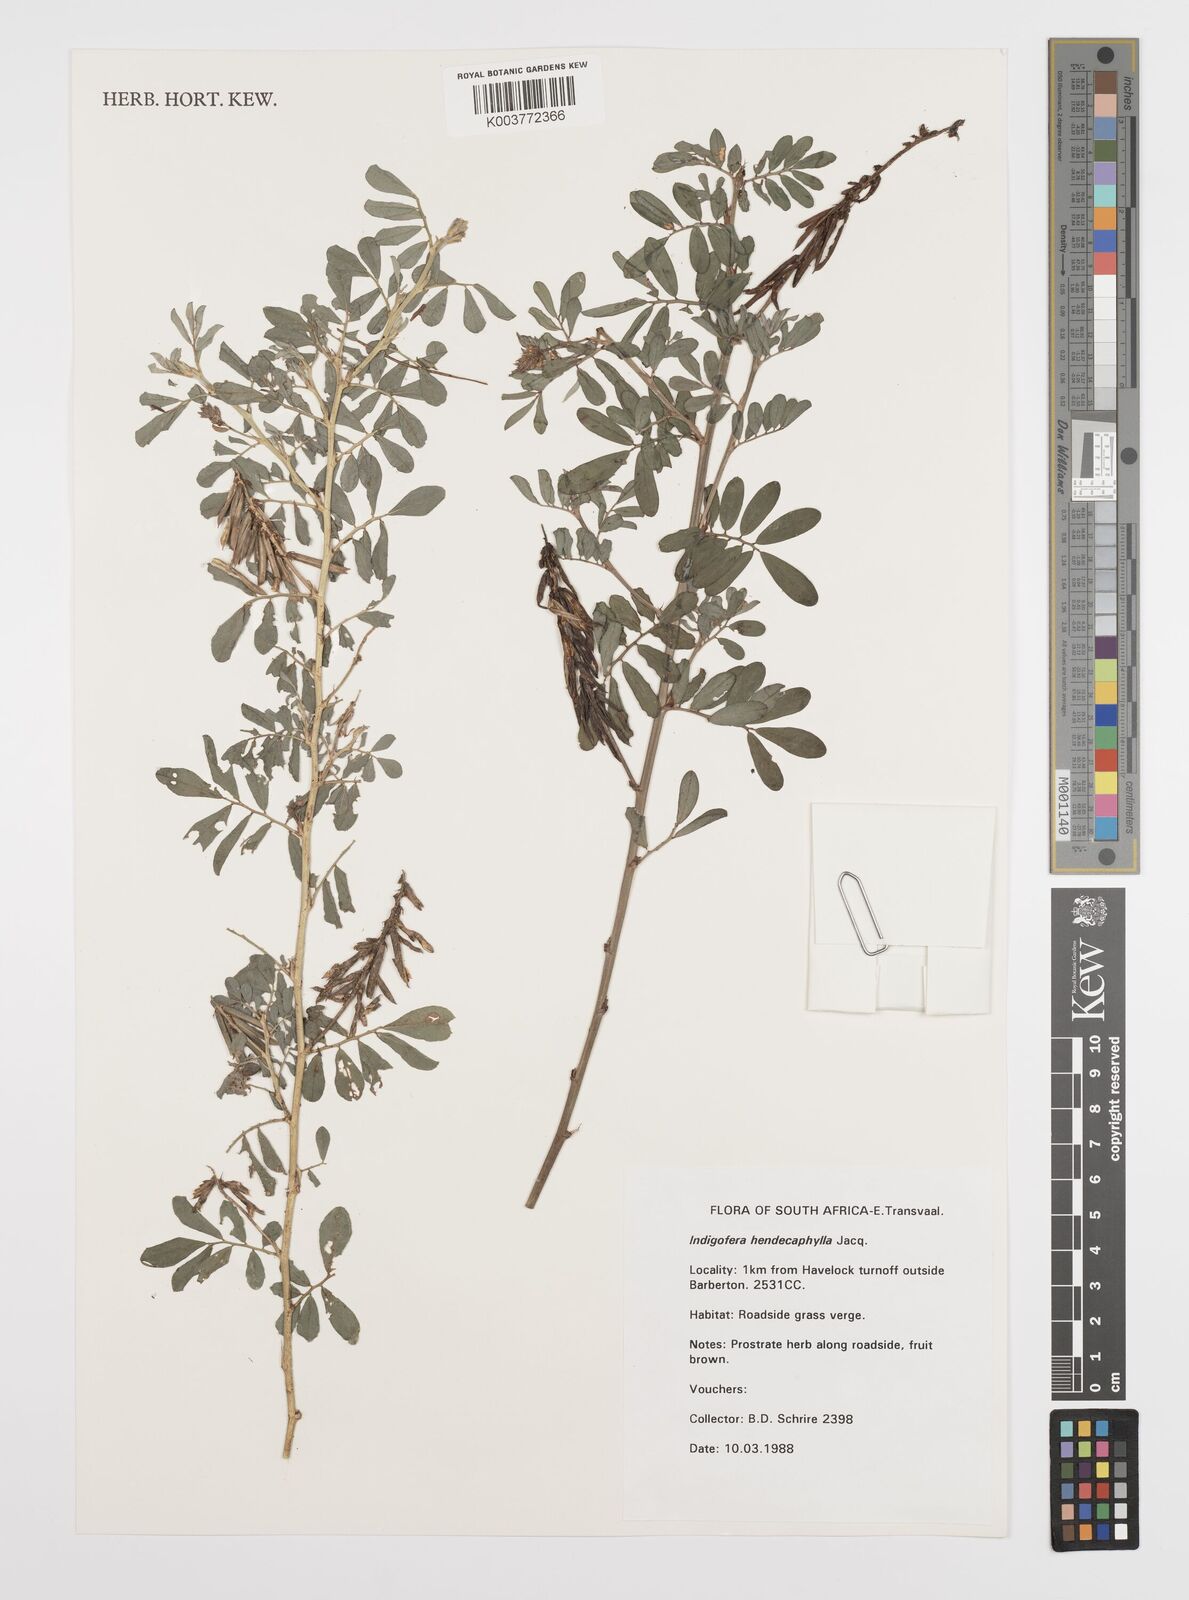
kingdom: Plantae
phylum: Tracheophyta
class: Magnoliopsida
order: Fabales
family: Fabaceae
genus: Indigofera
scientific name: Indigofera hendecaphylla
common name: Trailing indigo
